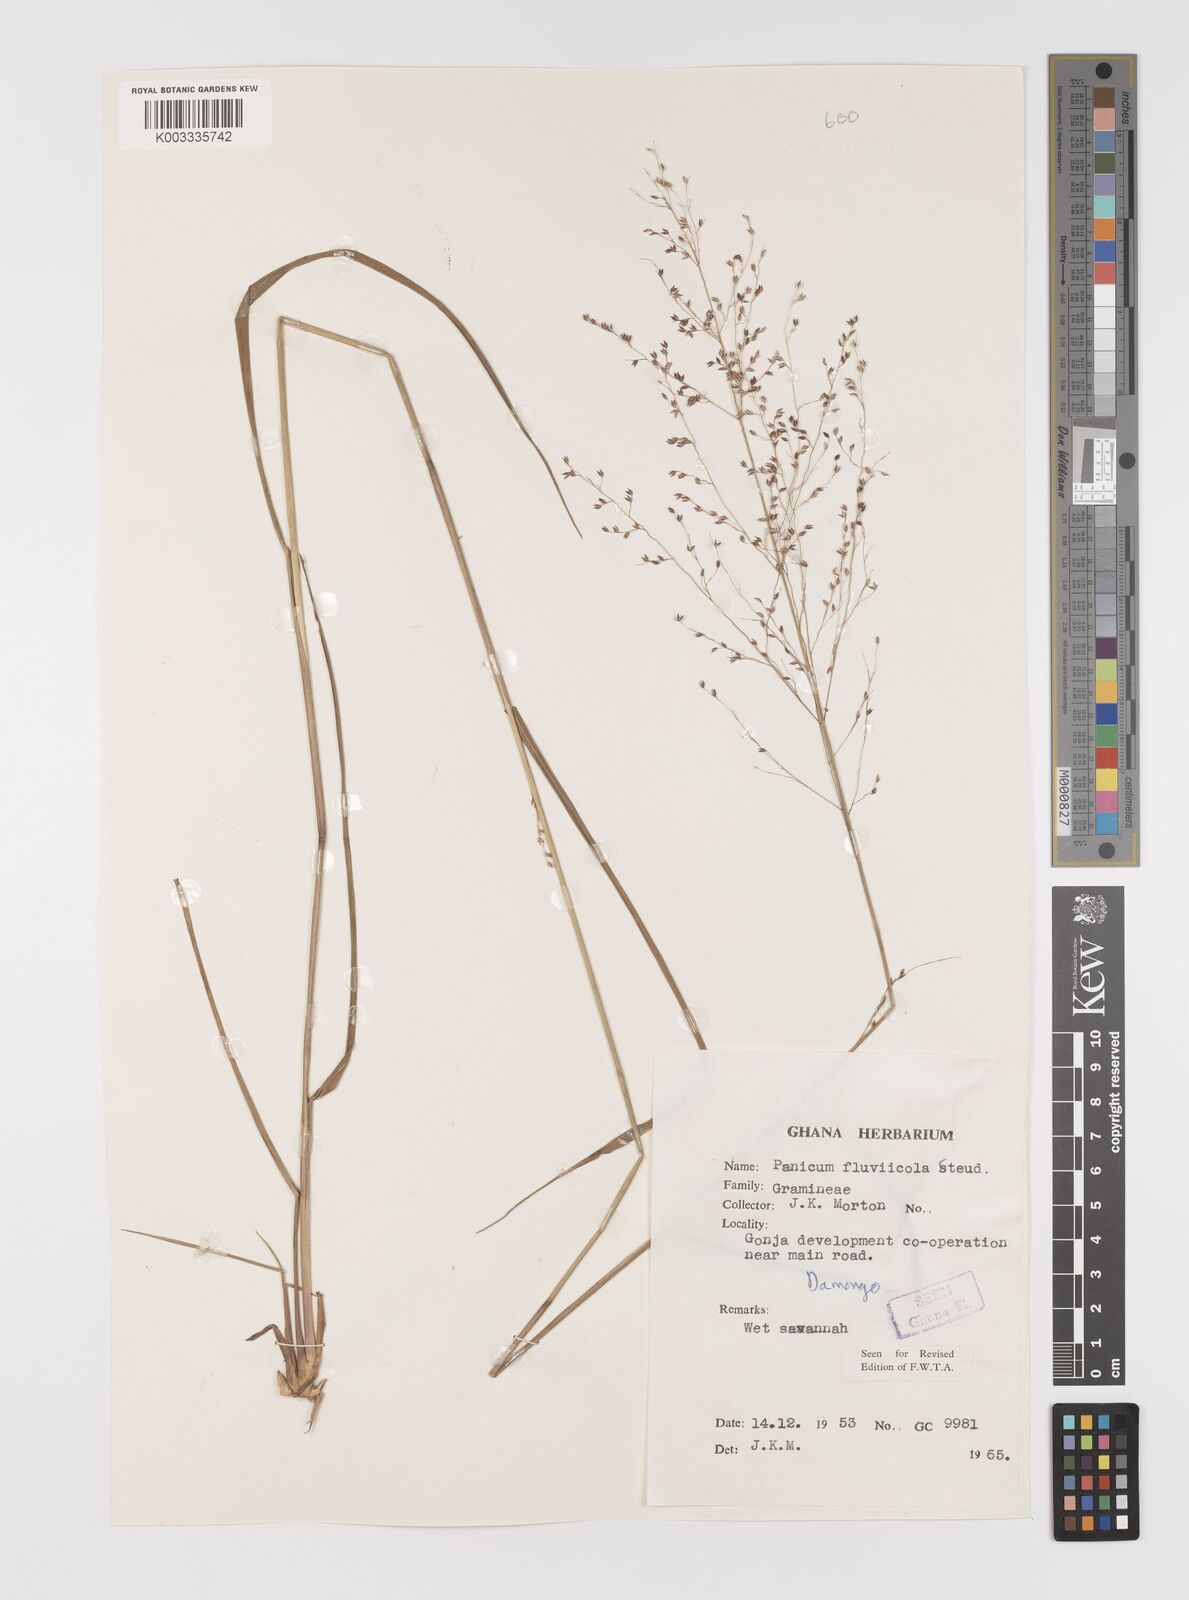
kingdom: Plantae
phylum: Tracheophyta
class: Liliopsida
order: Poales
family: Poaceae
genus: Panicum
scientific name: Panicum fluviicola
